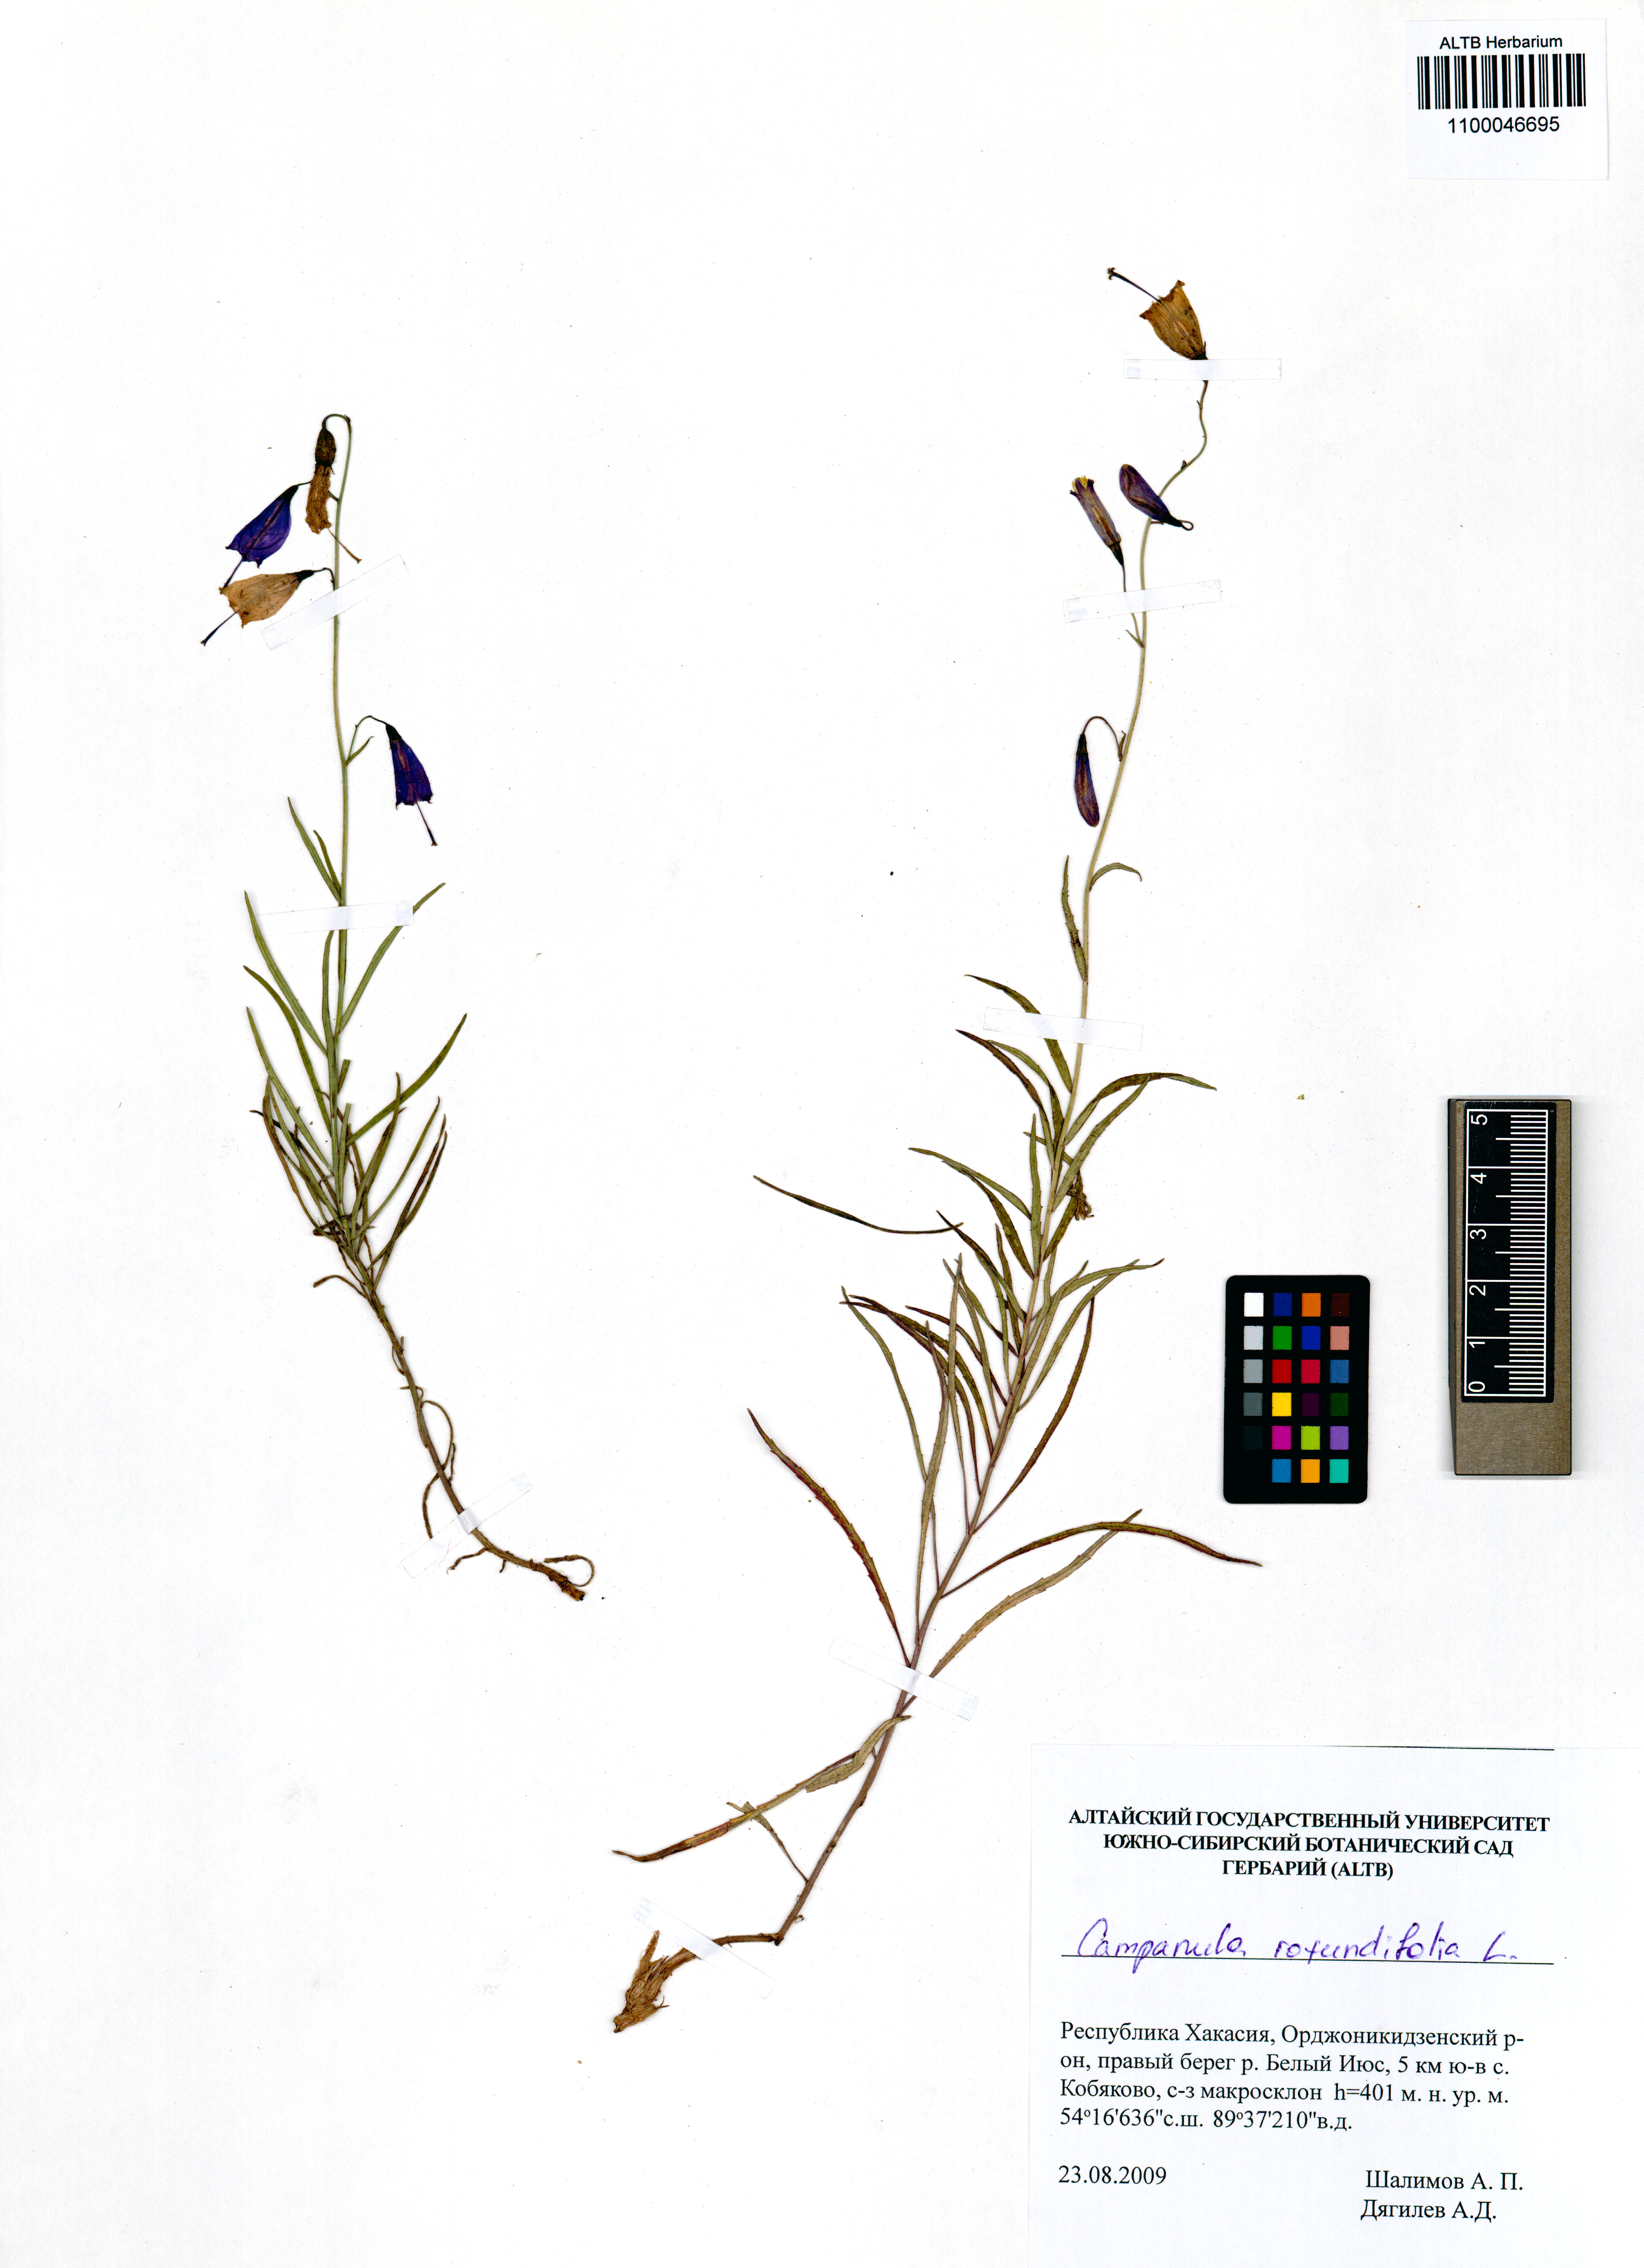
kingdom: Plantae
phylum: Tracheophyta
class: Magnoliopsida
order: Asterales
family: Campanulaceae
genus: Campanula
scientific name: Campanula rotundifolia
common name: Harebell
